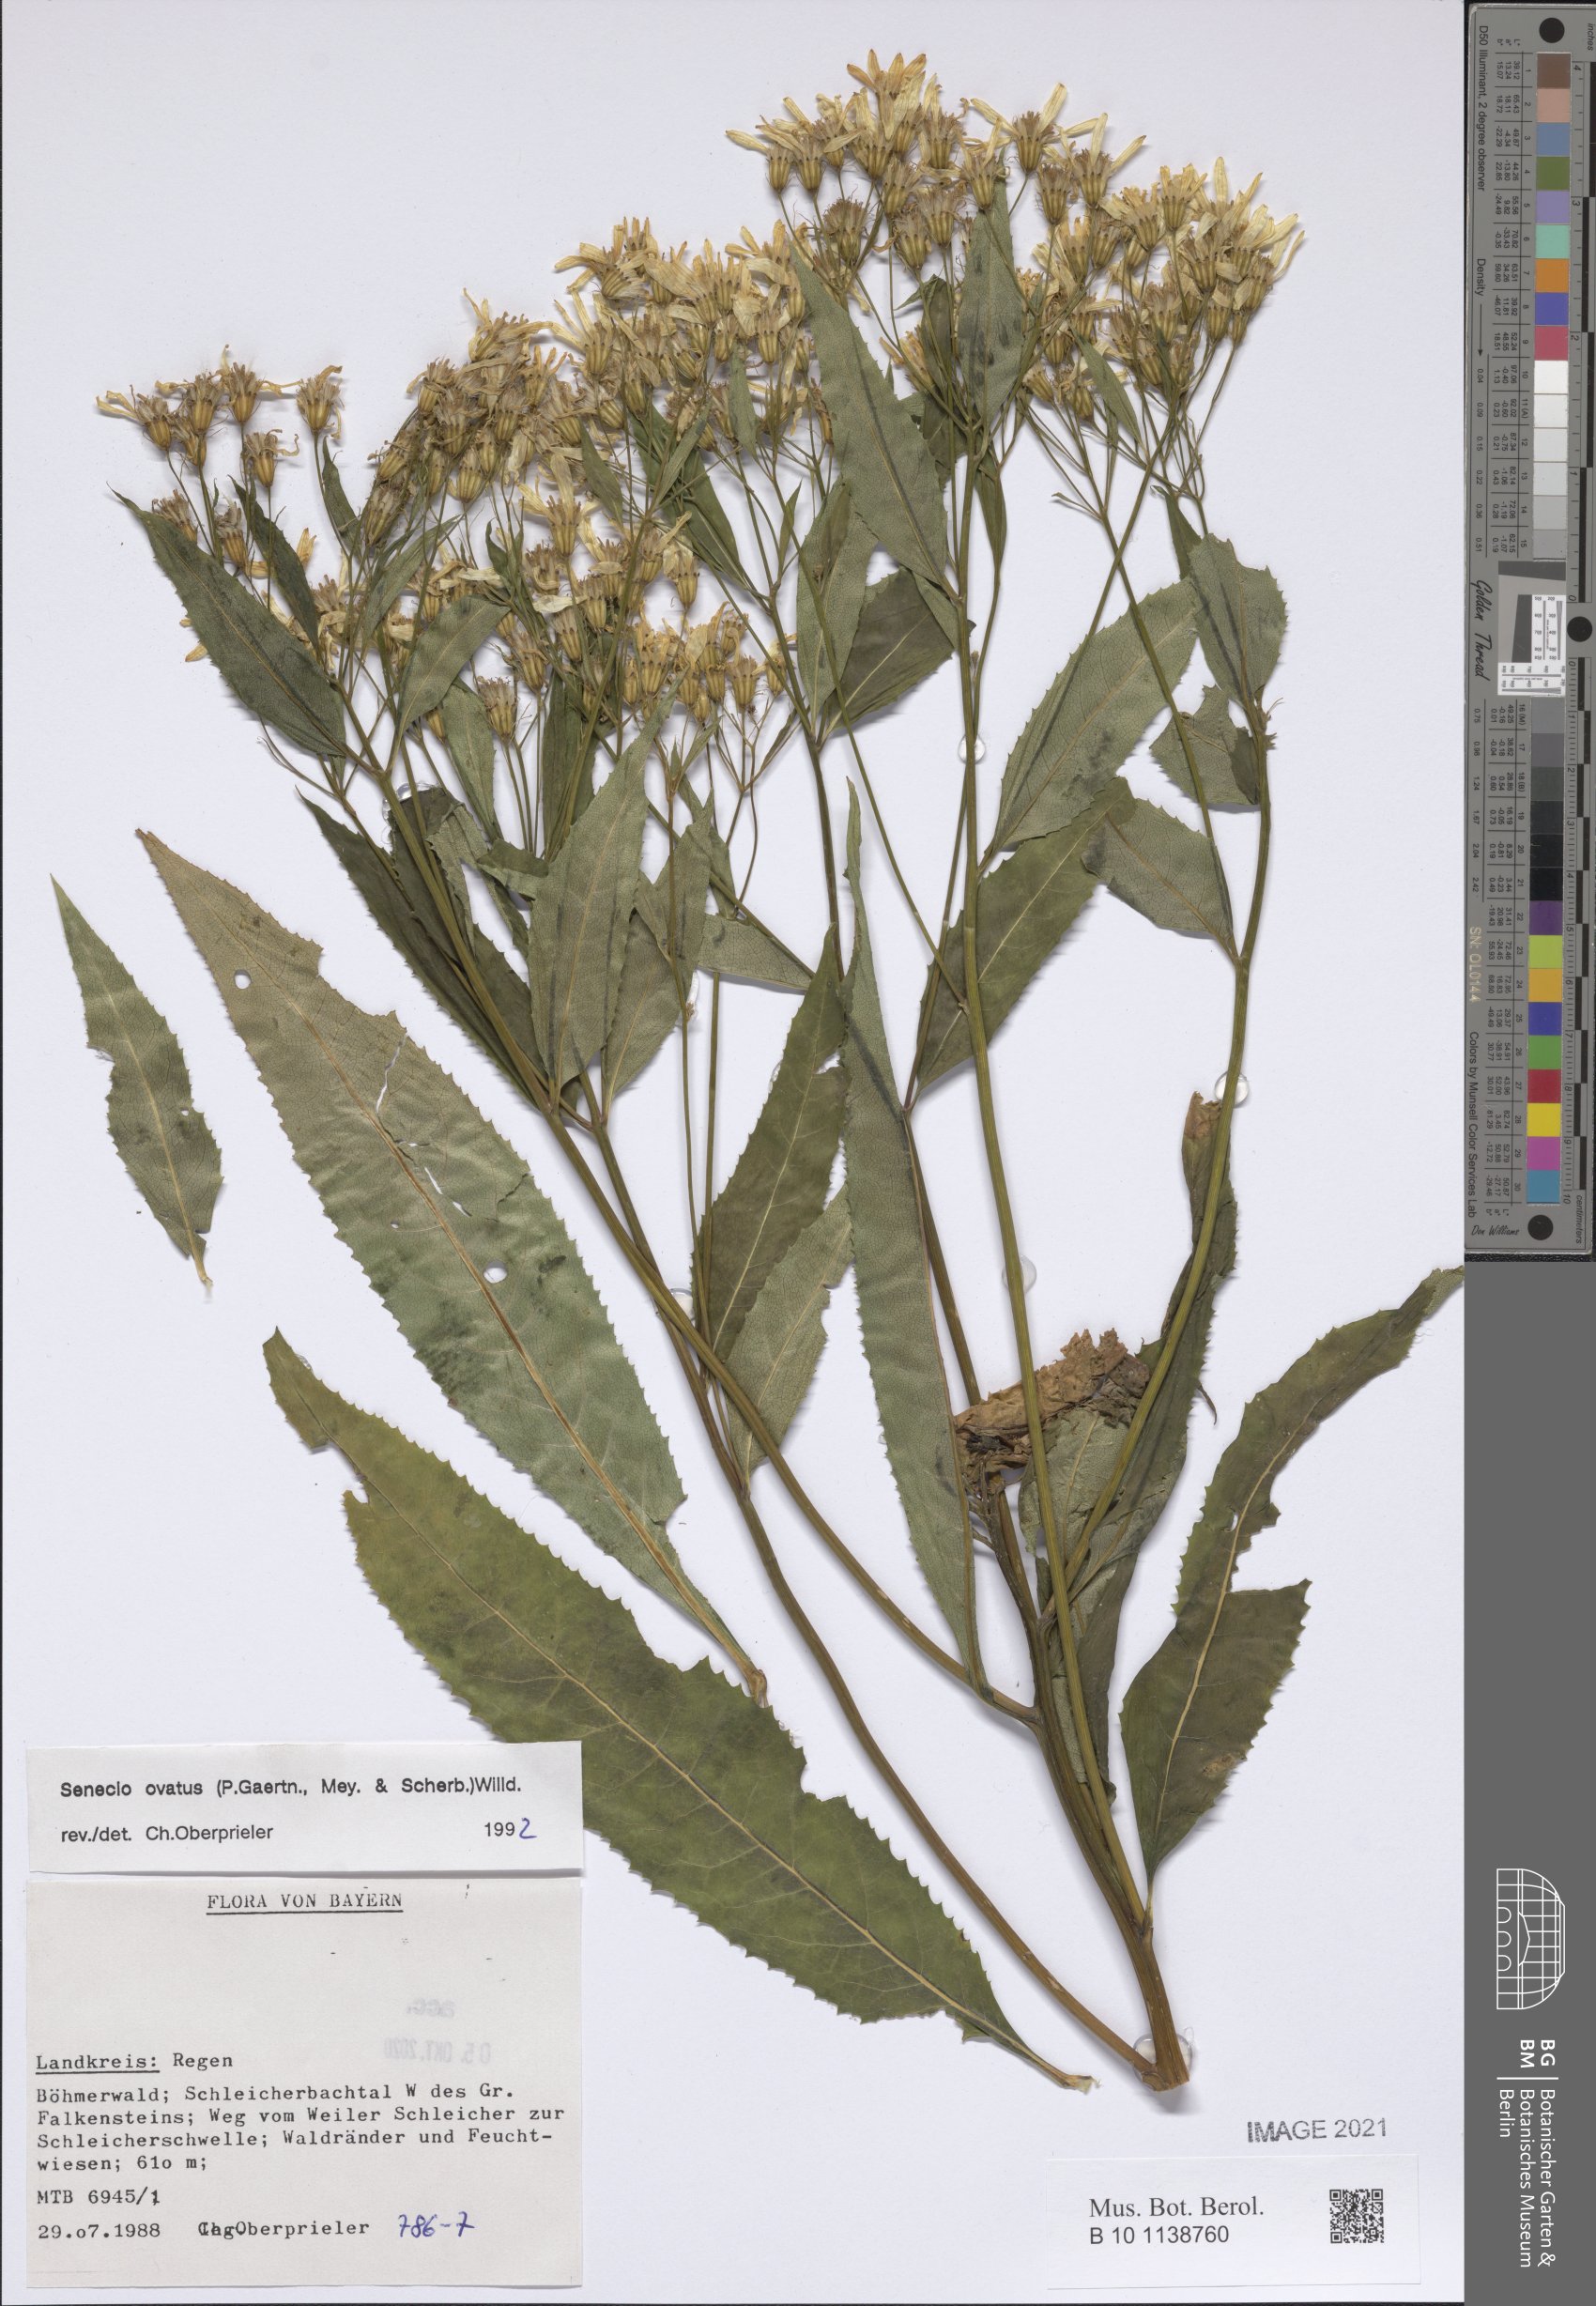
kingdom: Plantae
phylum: Tracheophyta
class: Magnoliopsida
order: Asterales
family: Asteraceae
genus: Senecio
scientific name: Senecio ovatus
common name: Wood ragwort
